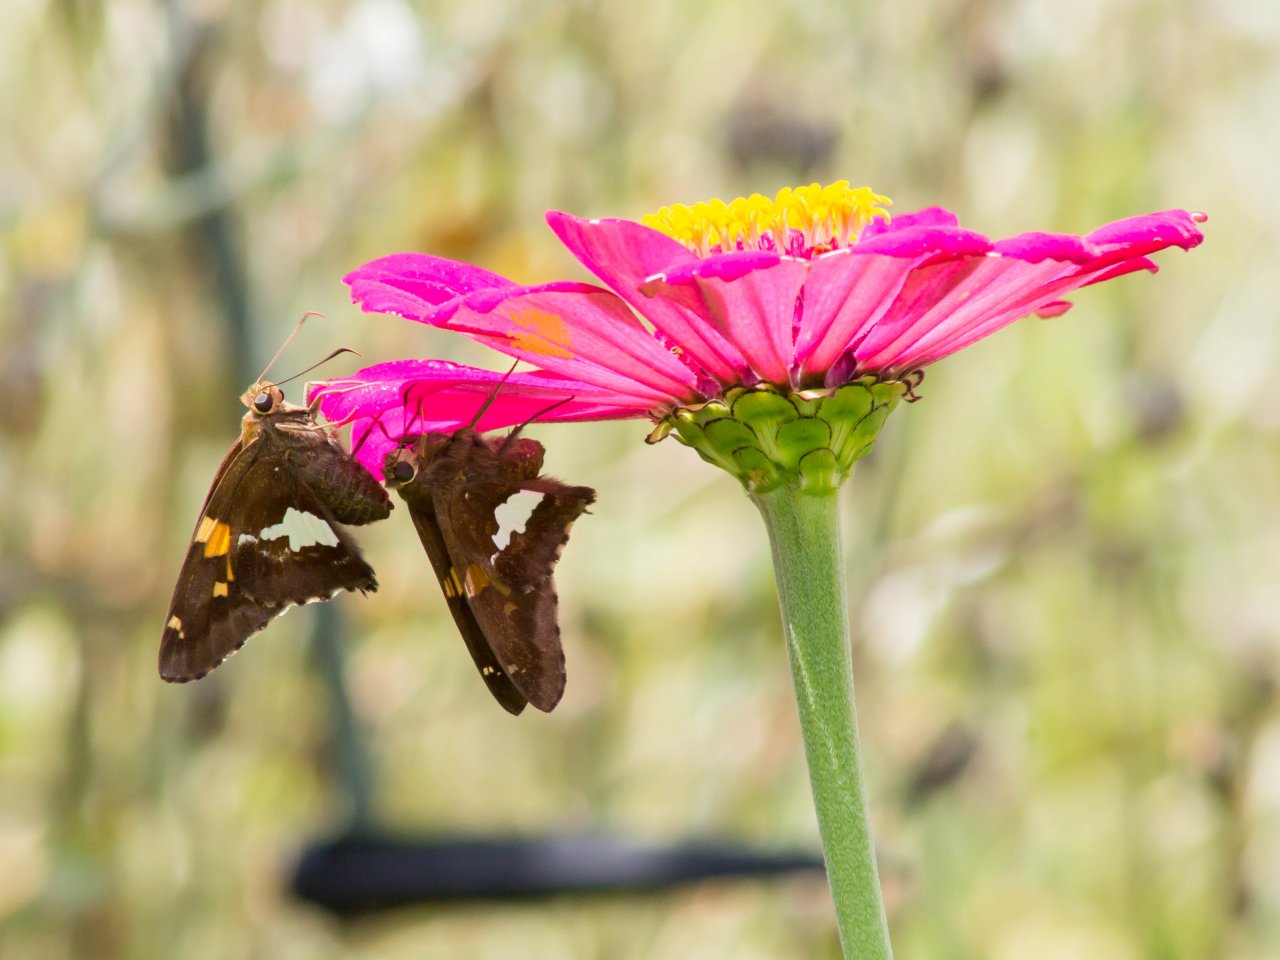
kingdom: Animalia
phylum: Arthropoda
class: Insecta
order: Lepidoptera
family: Hesperiidae
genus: Epargyreus
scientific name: Epargyreus clarus
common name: Silver-spotted Skipper
